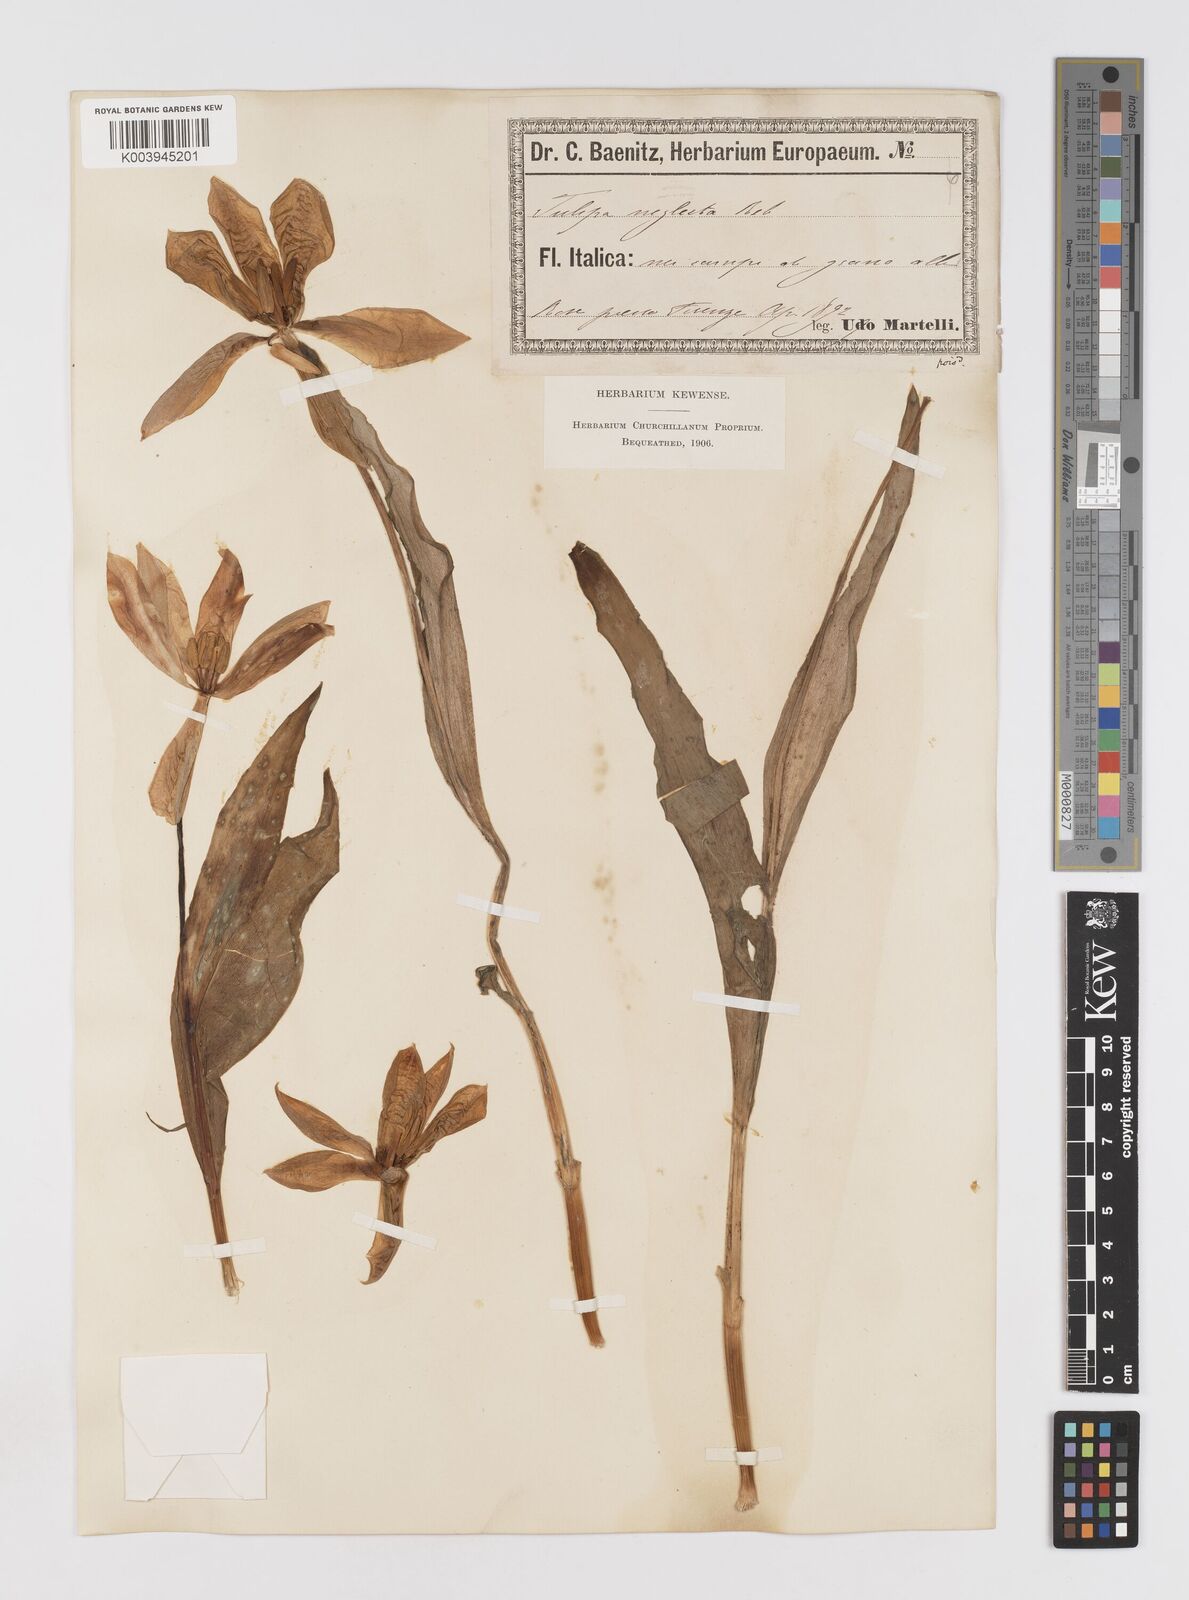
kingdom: Plantae
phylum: Tracheophyta
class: Liliopsida
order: Liliales
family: Liliaceae
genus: Tulipa
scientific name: Tulipa
